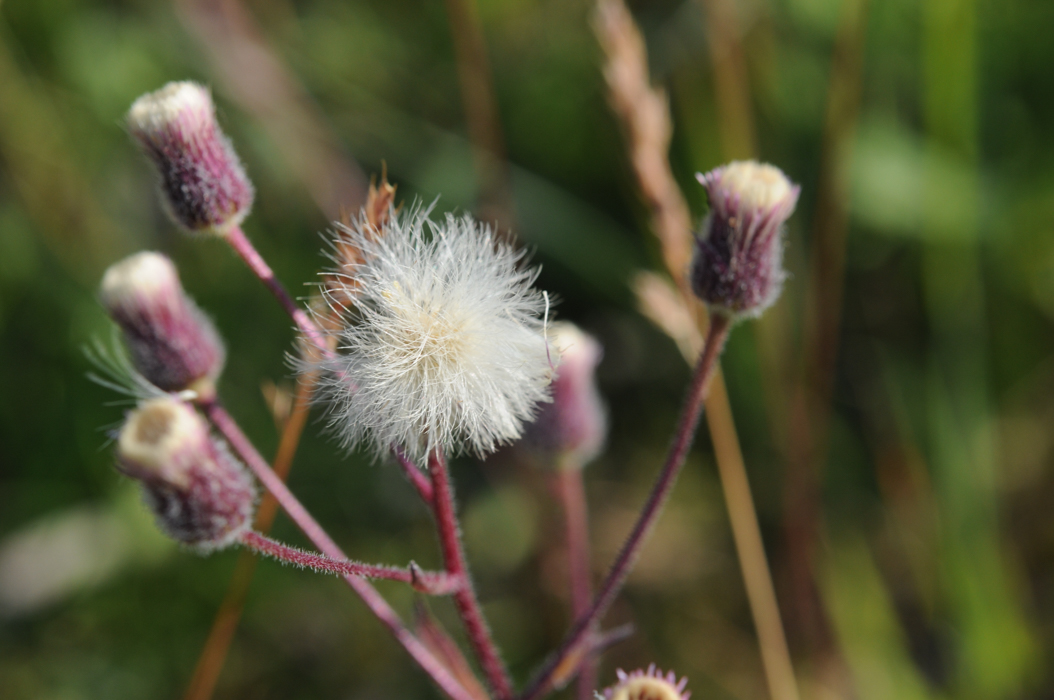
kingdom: Plantae
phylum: Tracheophyta
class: Magnoliopsida
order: Asterales
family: Asteraceae
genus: Erigeron
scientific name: Erigeron acris
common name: Blue fleabane
